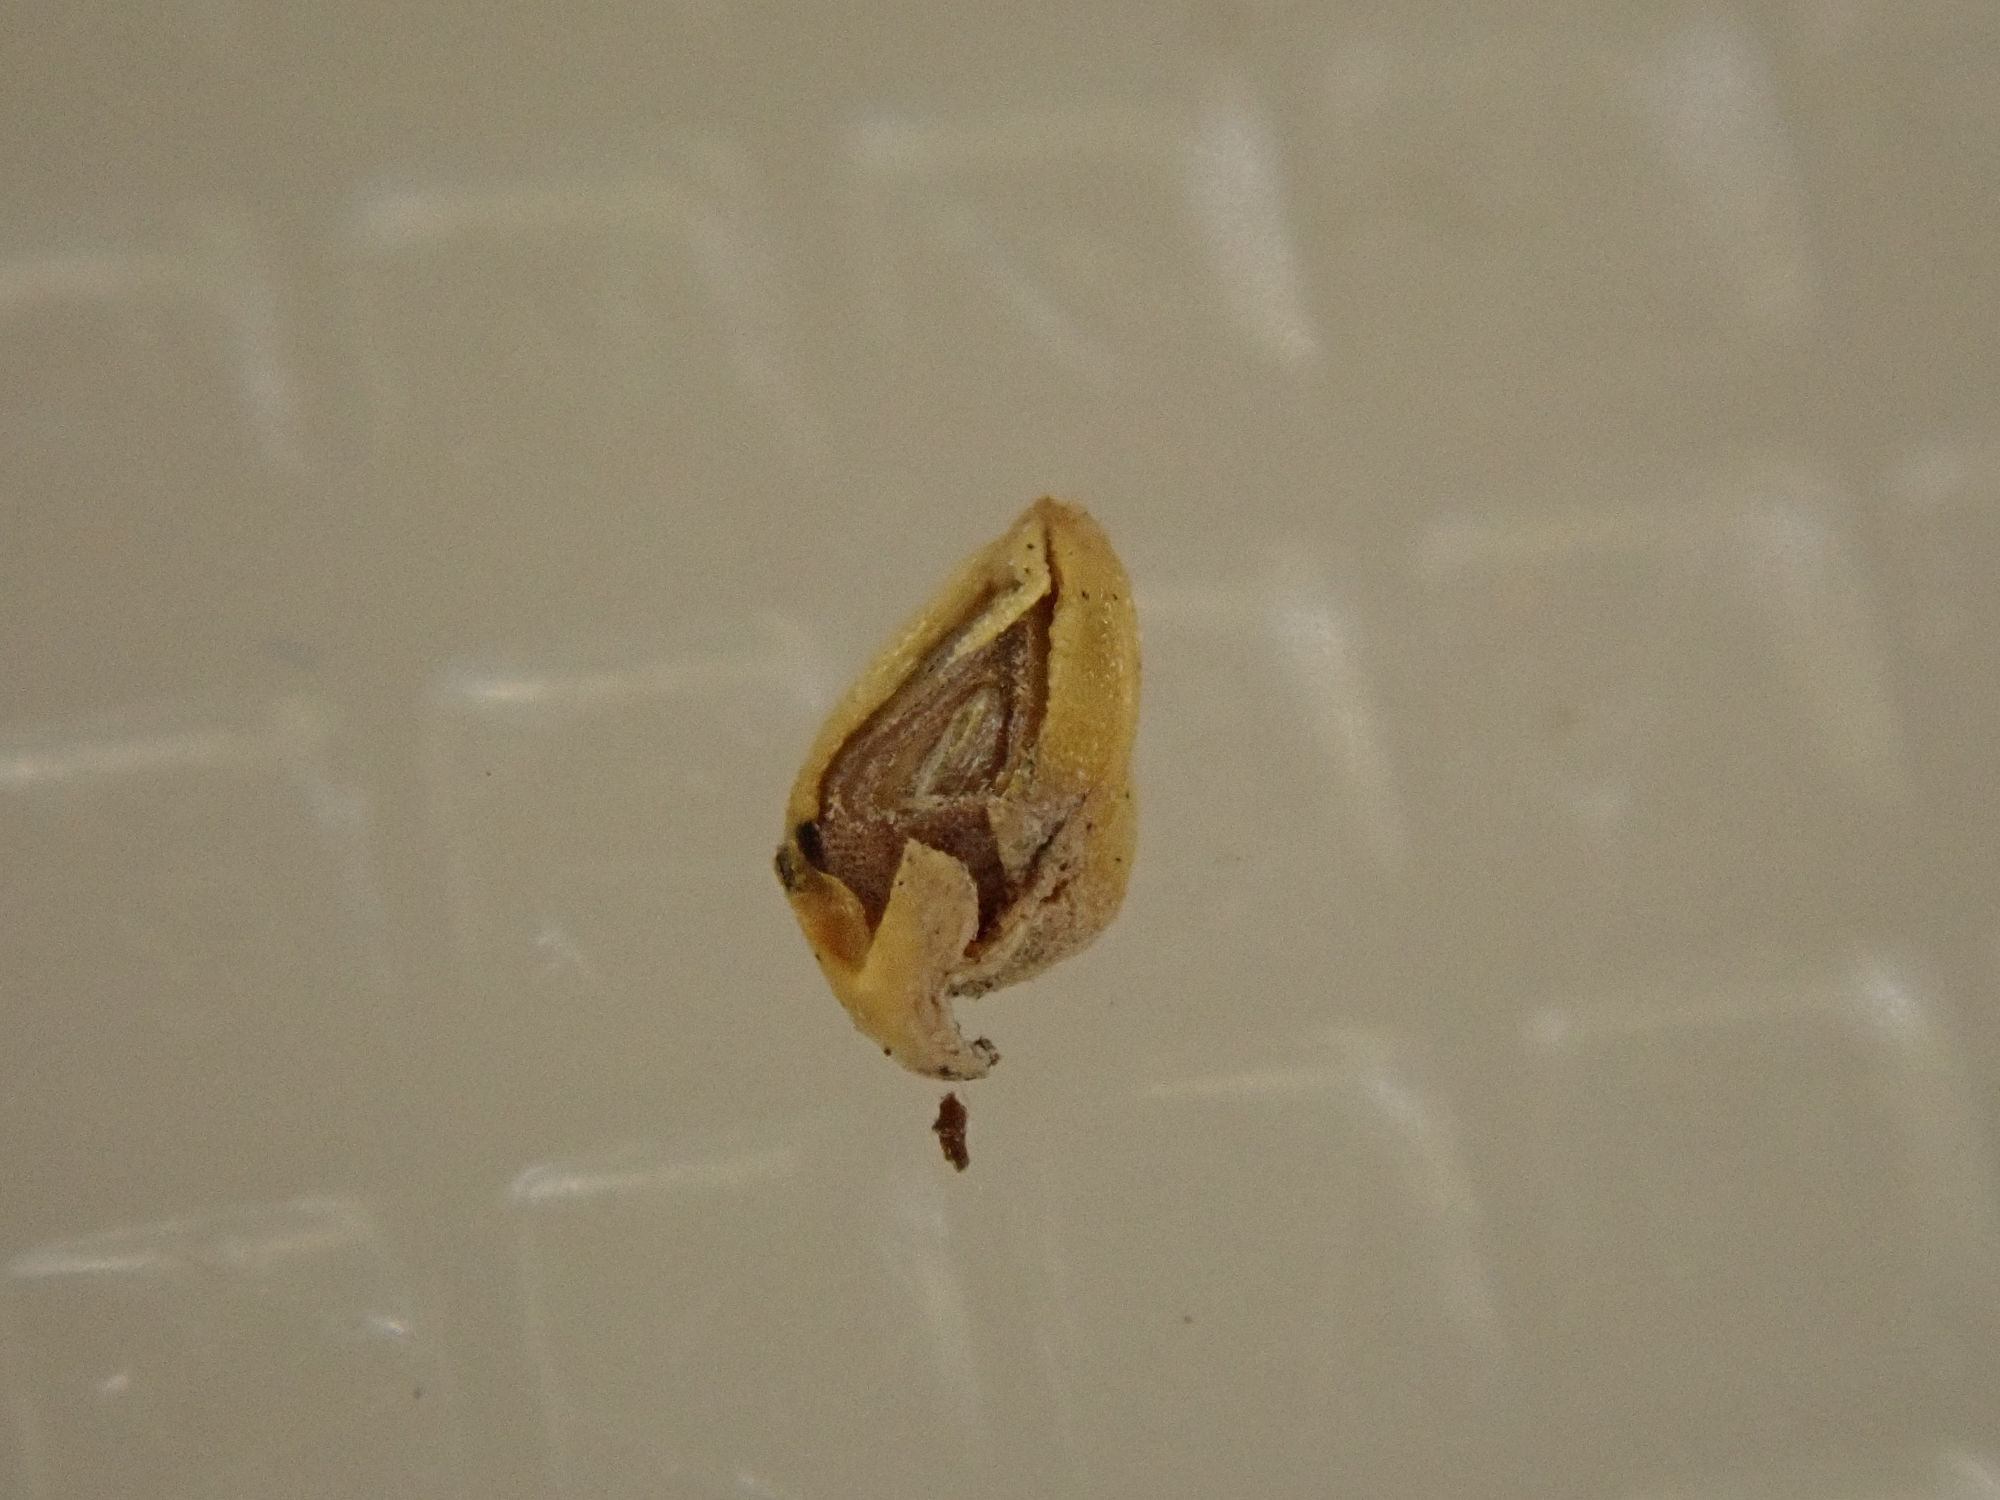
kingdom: Plantae
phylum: Tracheophyta
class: Liliopsida
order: Poales
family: Cyperaceae
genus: Carex
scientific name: Carex oederi
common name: Høst-star
